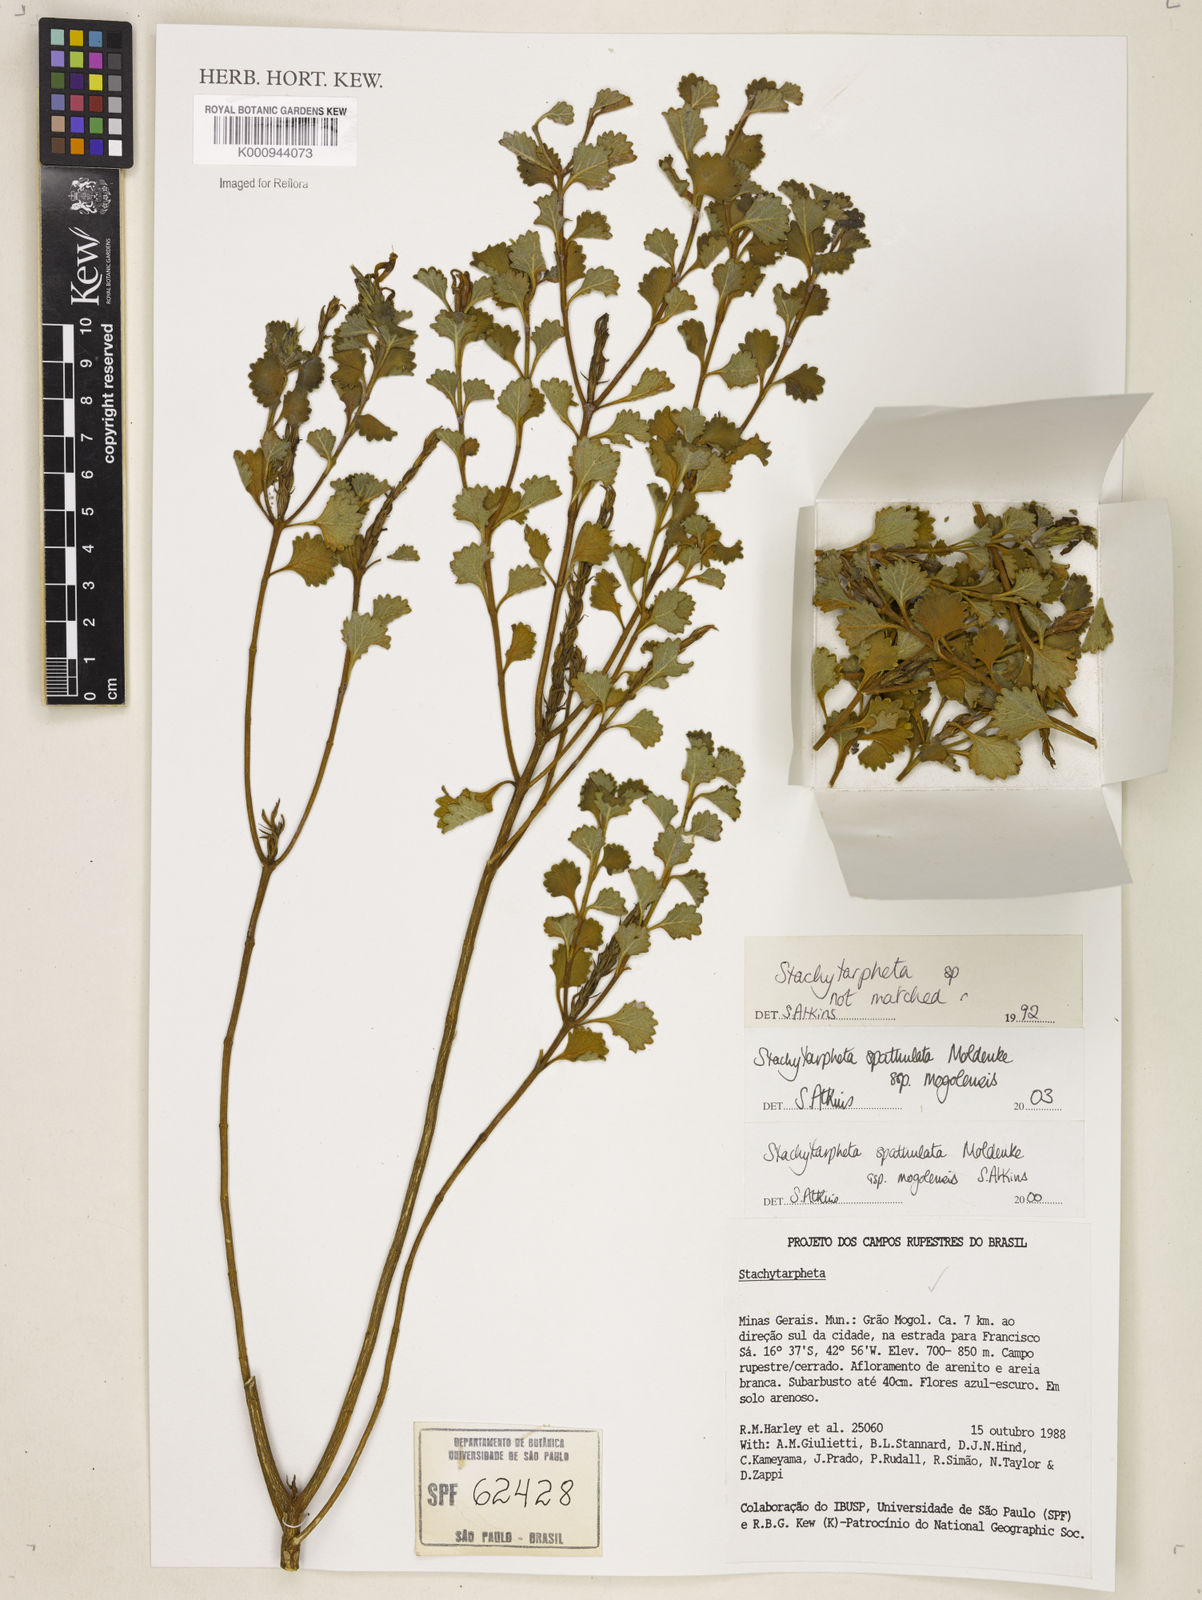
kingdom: Plantae
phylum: Tracheophyta
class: Magnoliopsida
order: Lamiales
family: Verbenaceae
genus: Stachytarpheta
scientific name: Stachytarpheta spathulata
